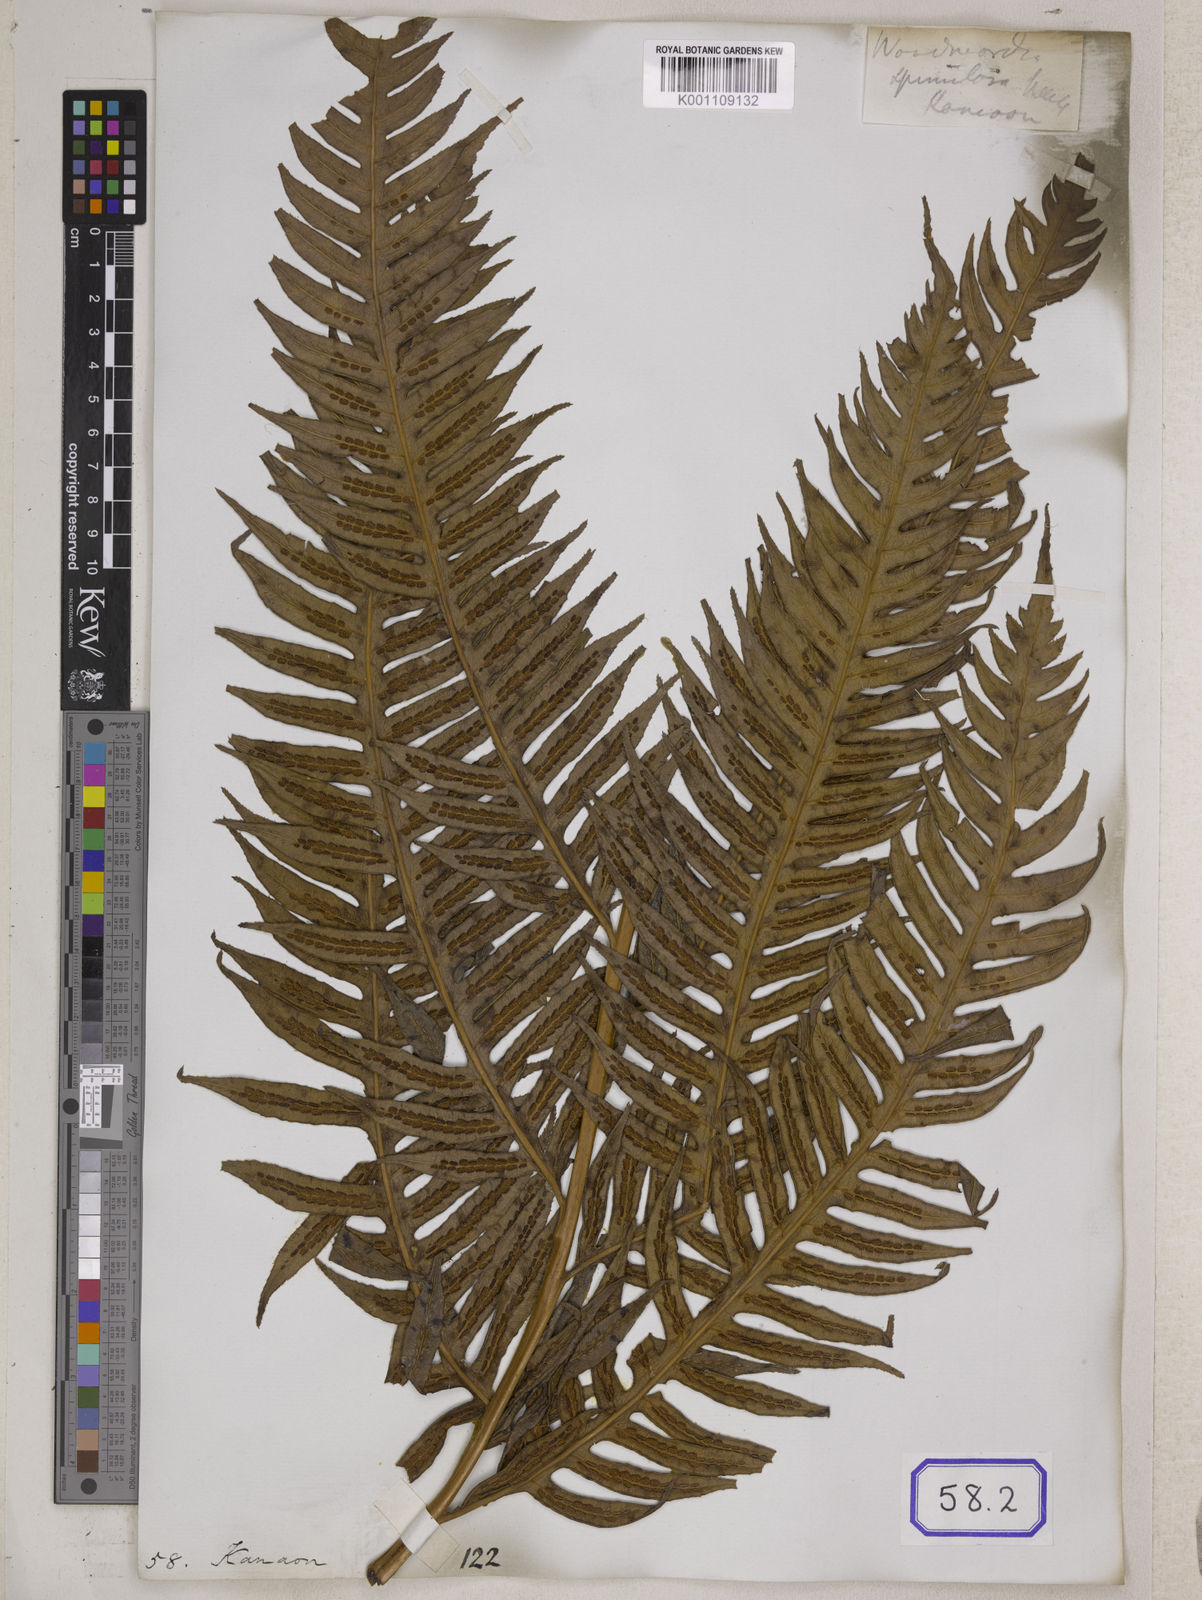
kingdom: Plantae
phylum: Tracheophyta
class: Polypodiopsida
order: Polypodiales
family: Blechnaceae
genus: Woodwardia
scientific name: Woodwardia
